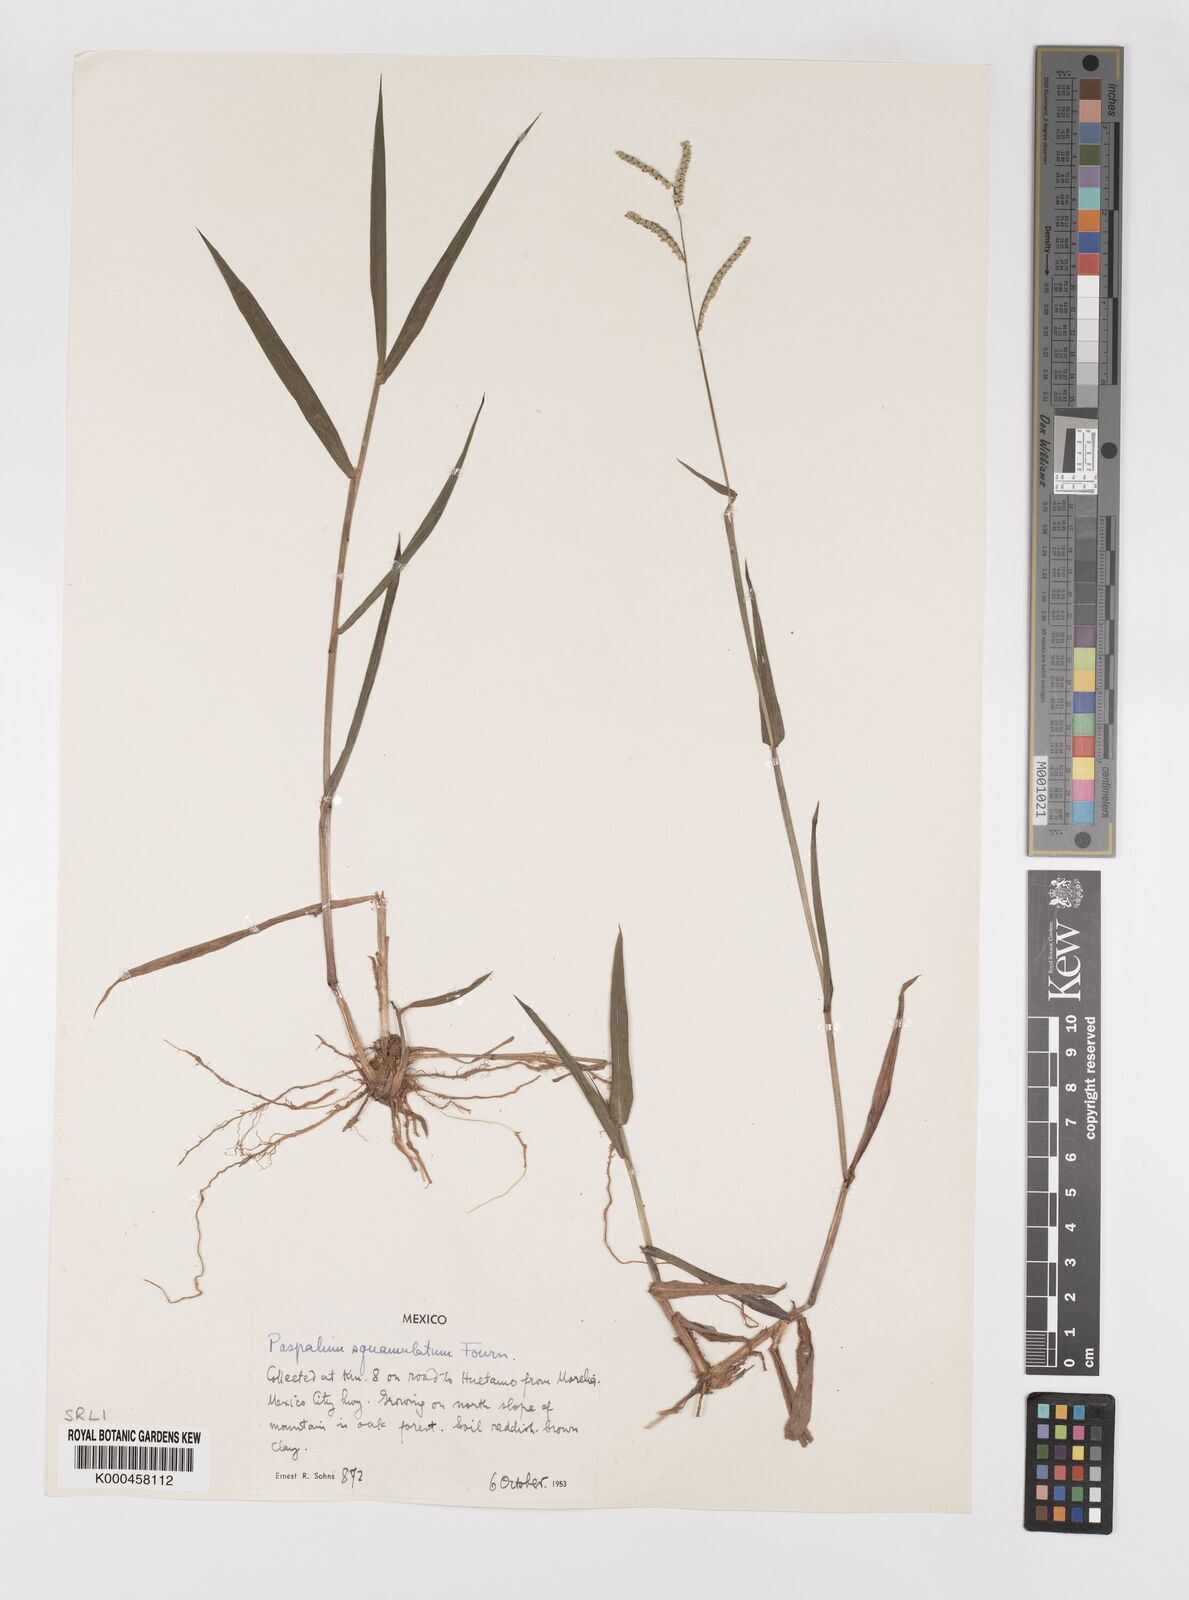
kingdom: Plantae
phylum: Tracheophyta
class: Liliopsida
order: Poales
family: Poaceae
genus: Paspalum
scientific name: Paspalum
